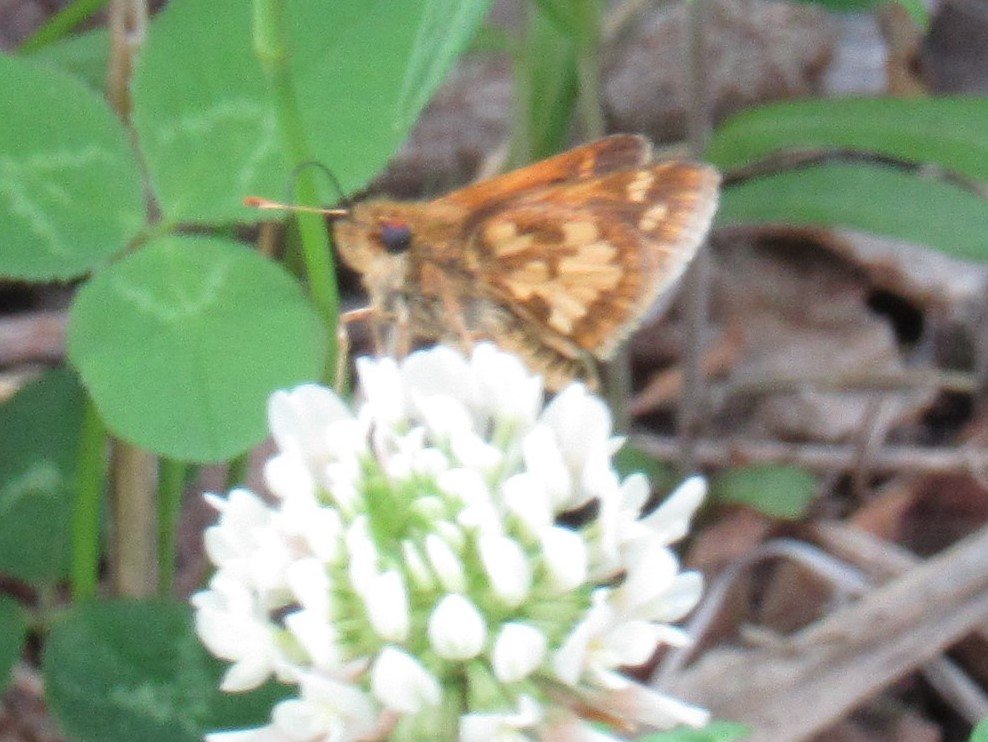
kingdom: Animalia
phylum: Arthropoda
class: Insecta
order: Lepidoptera
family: Hesperiidae
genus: Polites
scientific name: Polites coras
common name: Peck's Skipper
